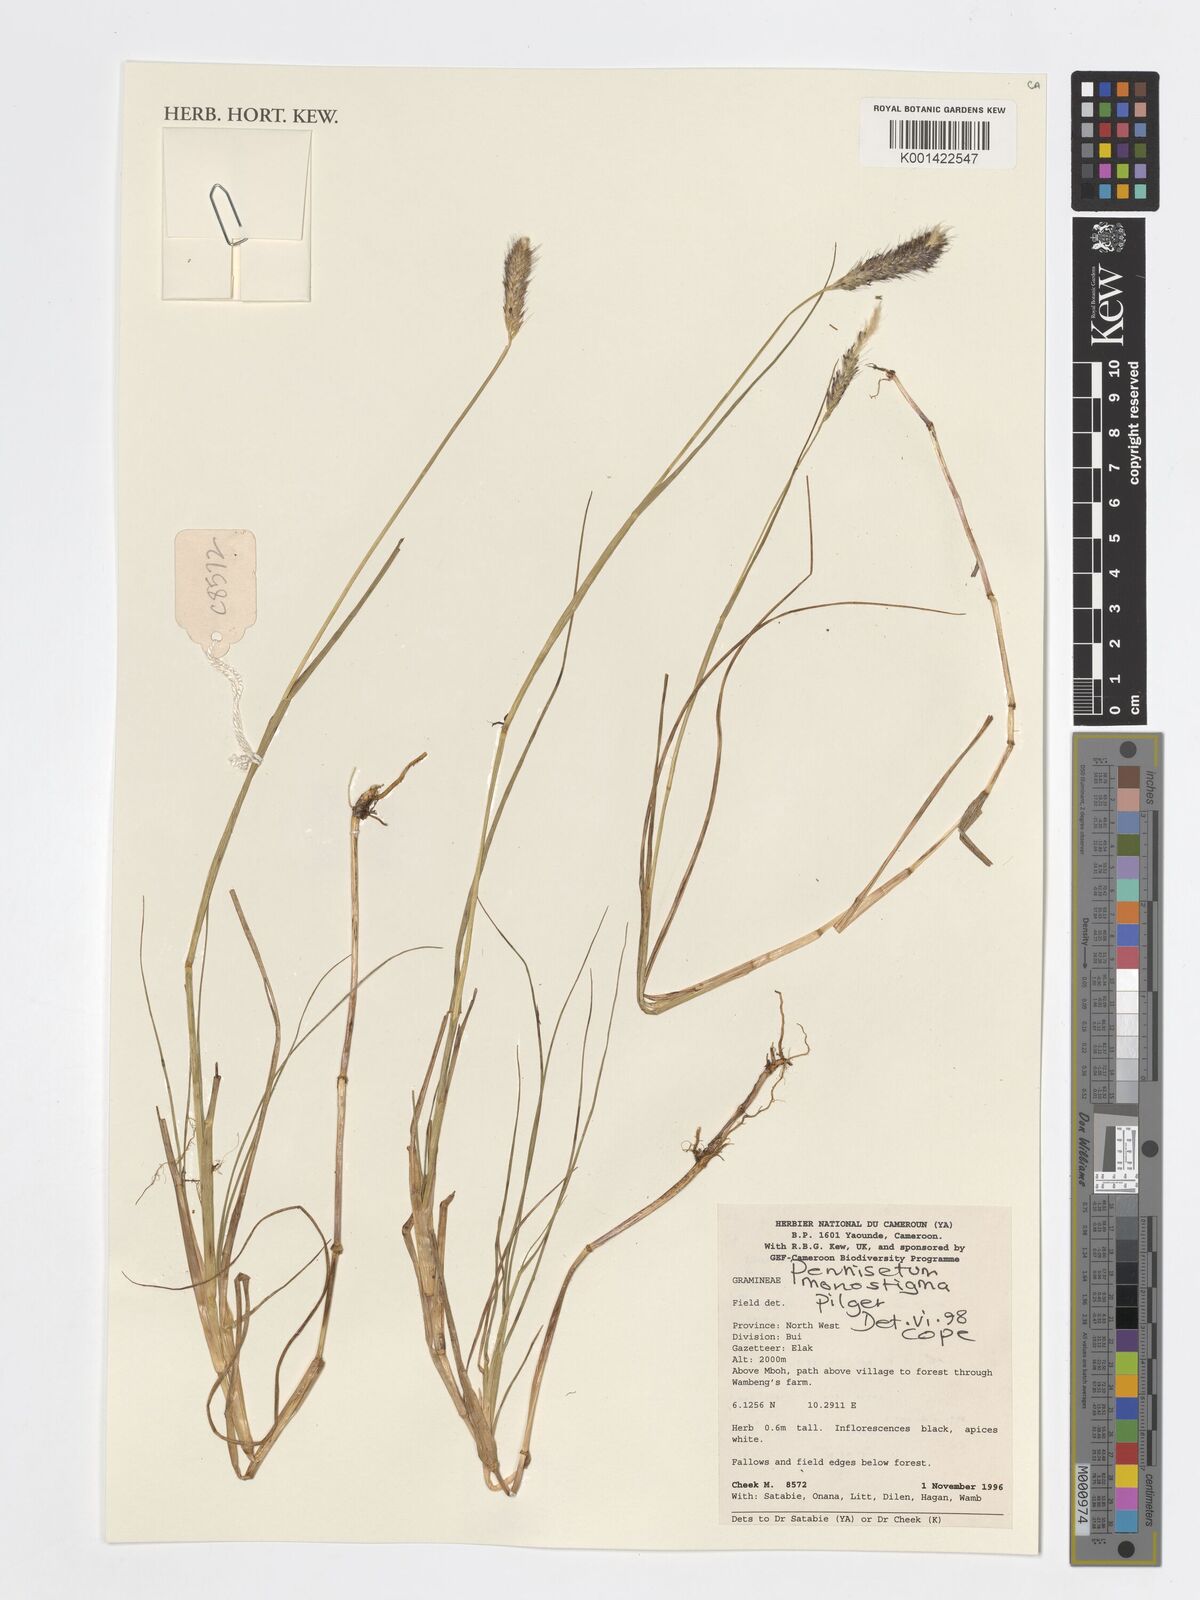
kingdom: Plantae
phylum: Tracheophyta
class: Liliopsida
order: Poales
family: Poaceae
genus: Cenchrus
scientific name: Cenchrus monostigma
